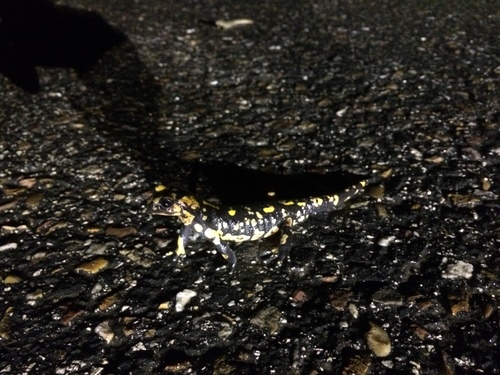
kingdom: Animalia
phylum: Chordata
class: Amphibia
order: Caudata
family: Salamandridae
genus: Salamandra
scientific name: Salamandra salamandra
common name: Fire salamander
